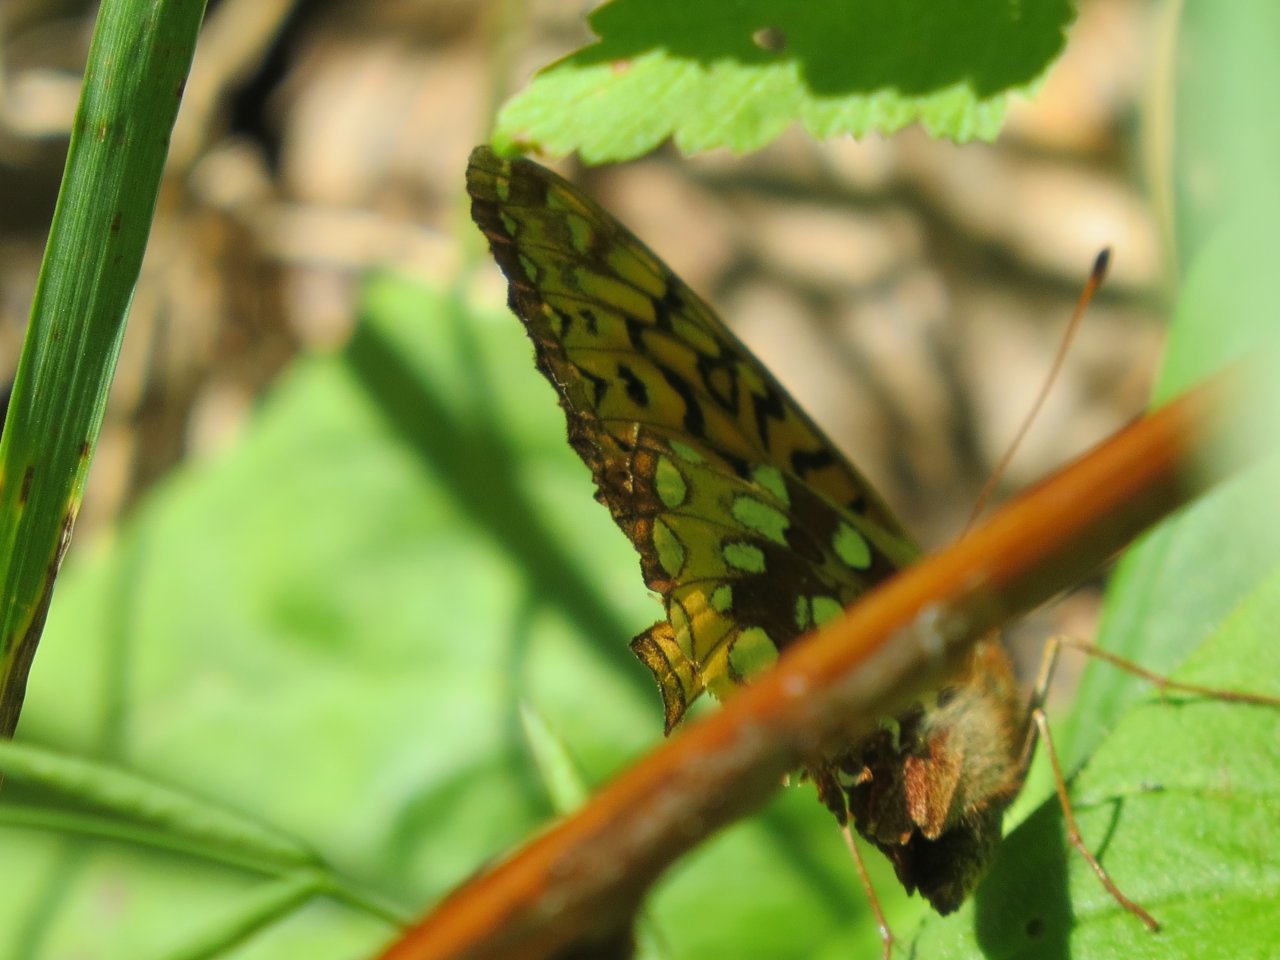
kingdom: Animalia
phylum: Arthropoda
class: Insecta
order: Lepidoptera
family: Nymphalidae
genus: Speyeria
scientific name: Speyeria cybele
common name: Great Spangled Fritillary
